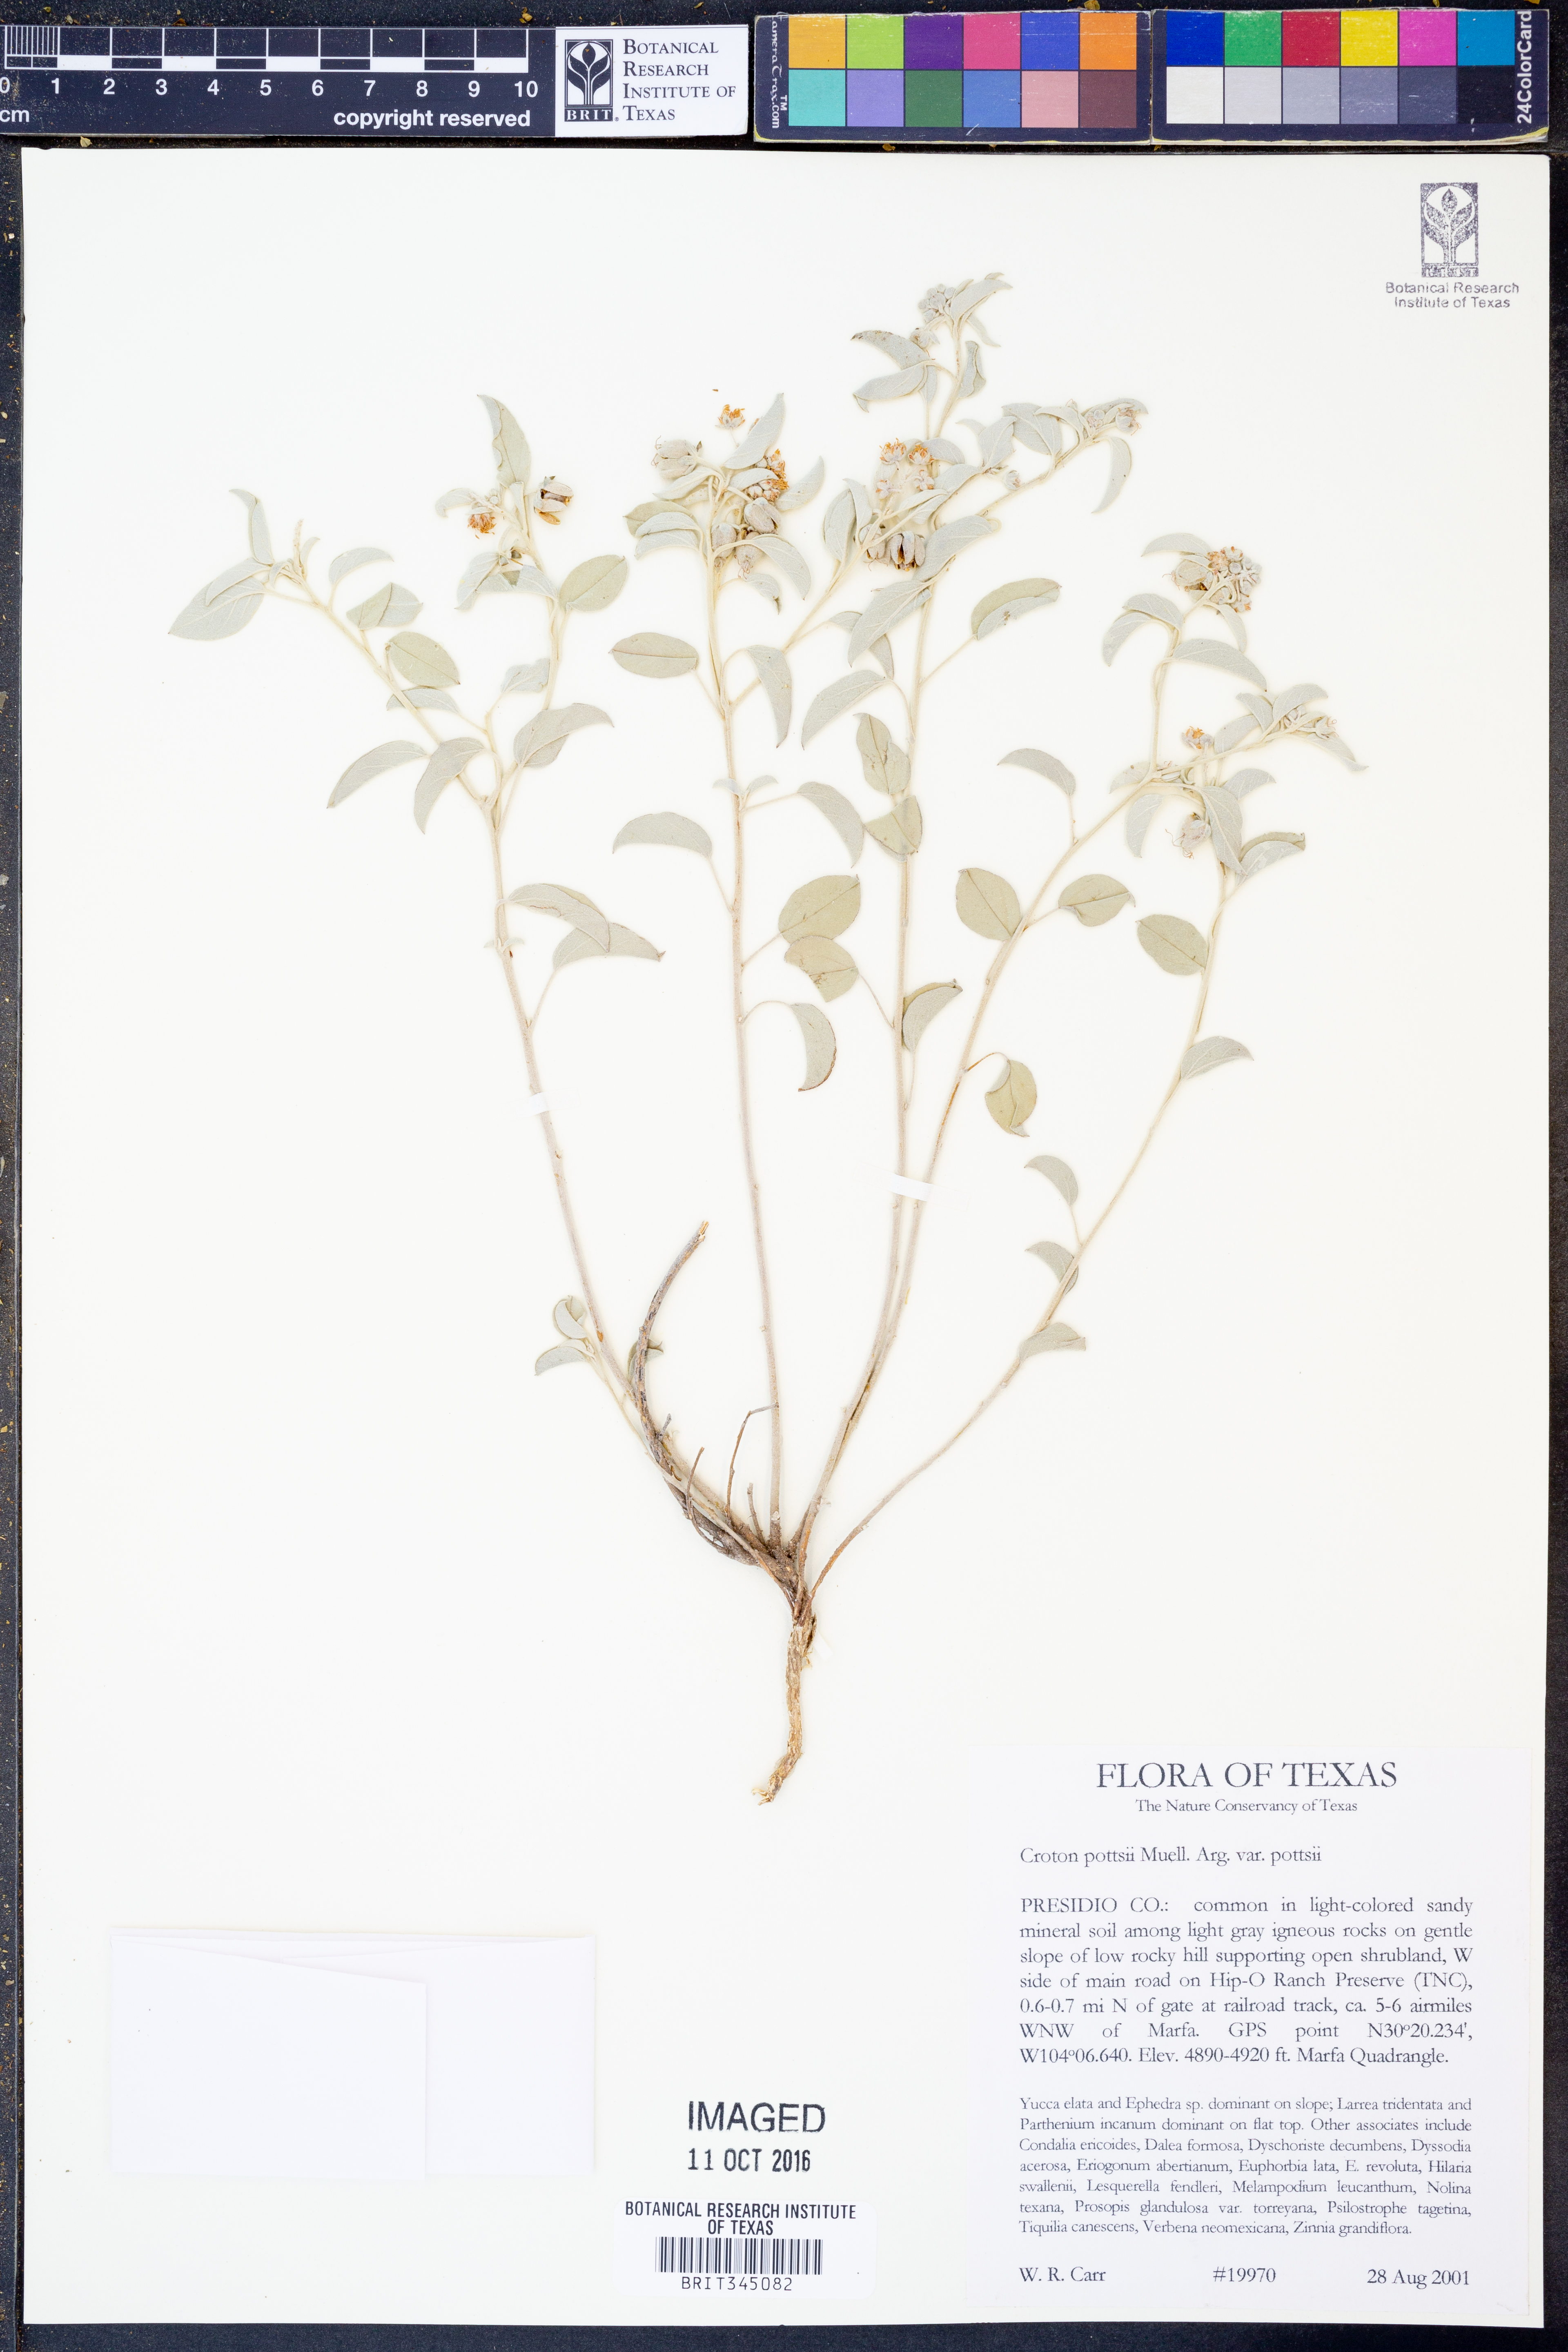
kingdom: Plantae
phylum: Tracheophyta
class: Magnoliopsida
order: Malpighiales
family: Euphorbiaceae
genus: Croton
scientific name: Croton pottsii
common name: Leatherweed
